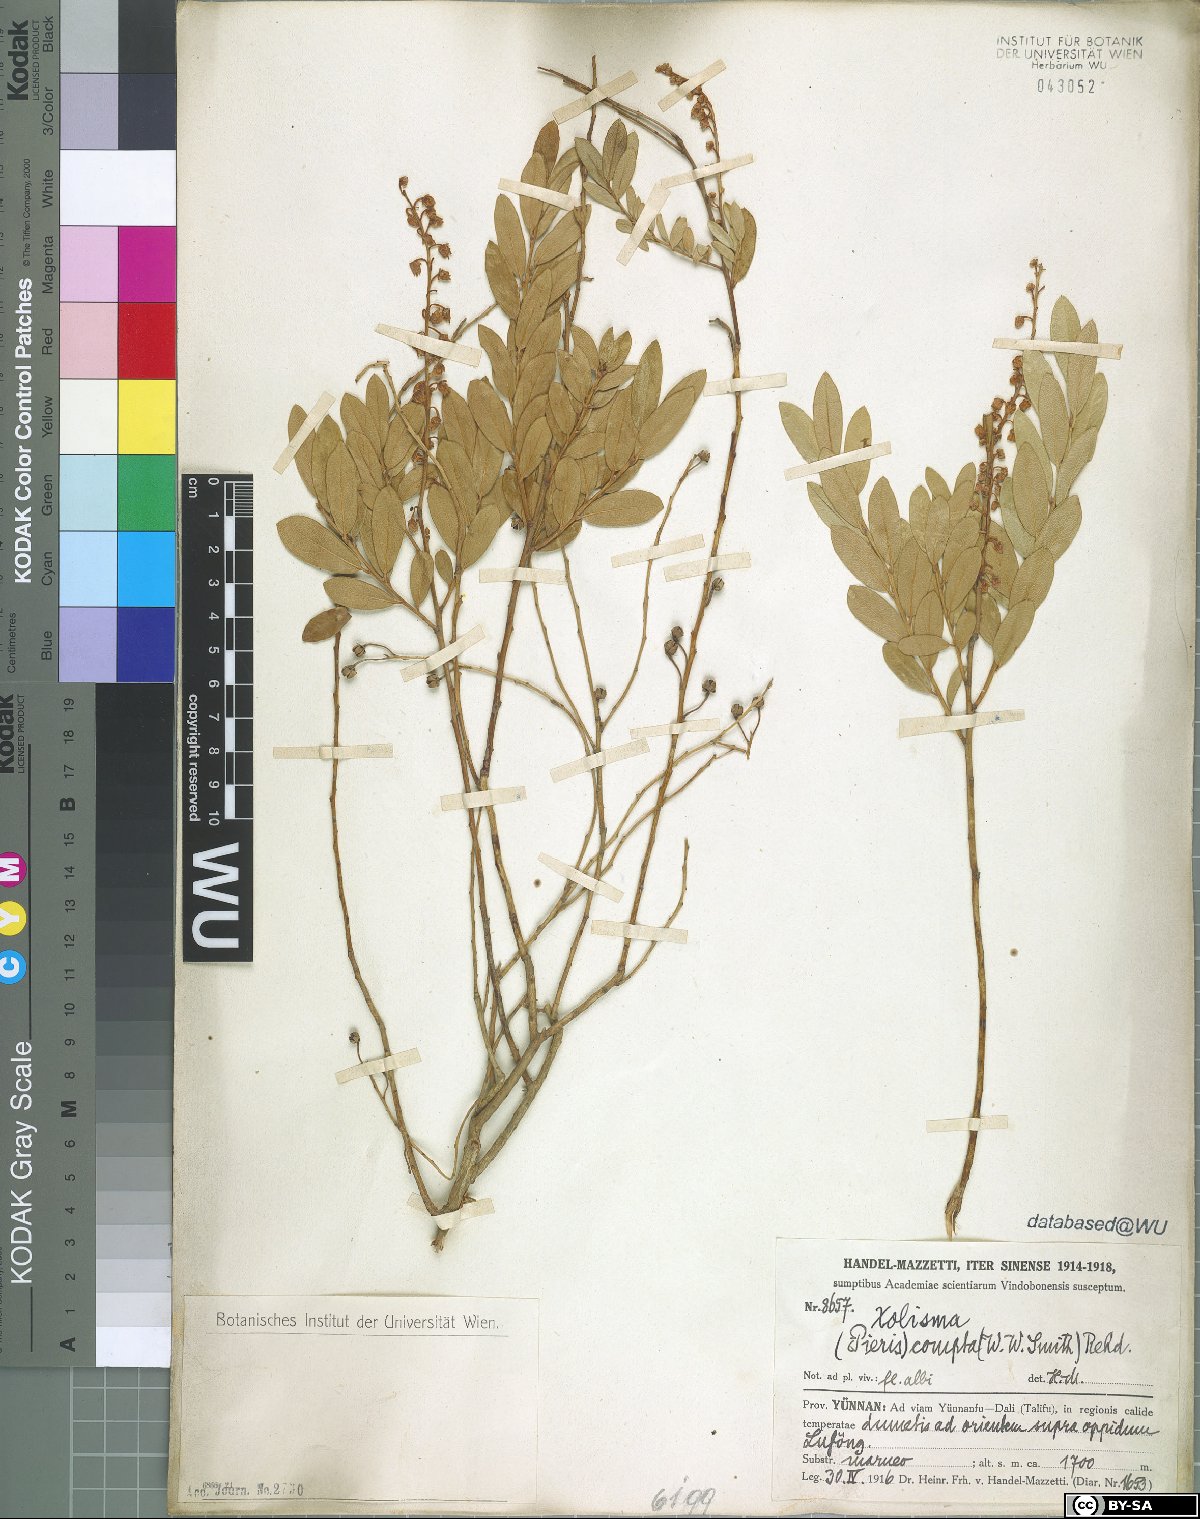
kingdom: Plantae
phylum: Tracheophyta
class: Magnoliopsida
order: Ericales
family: Ericaceae
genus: Lyonia
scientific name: Lyonia compta
